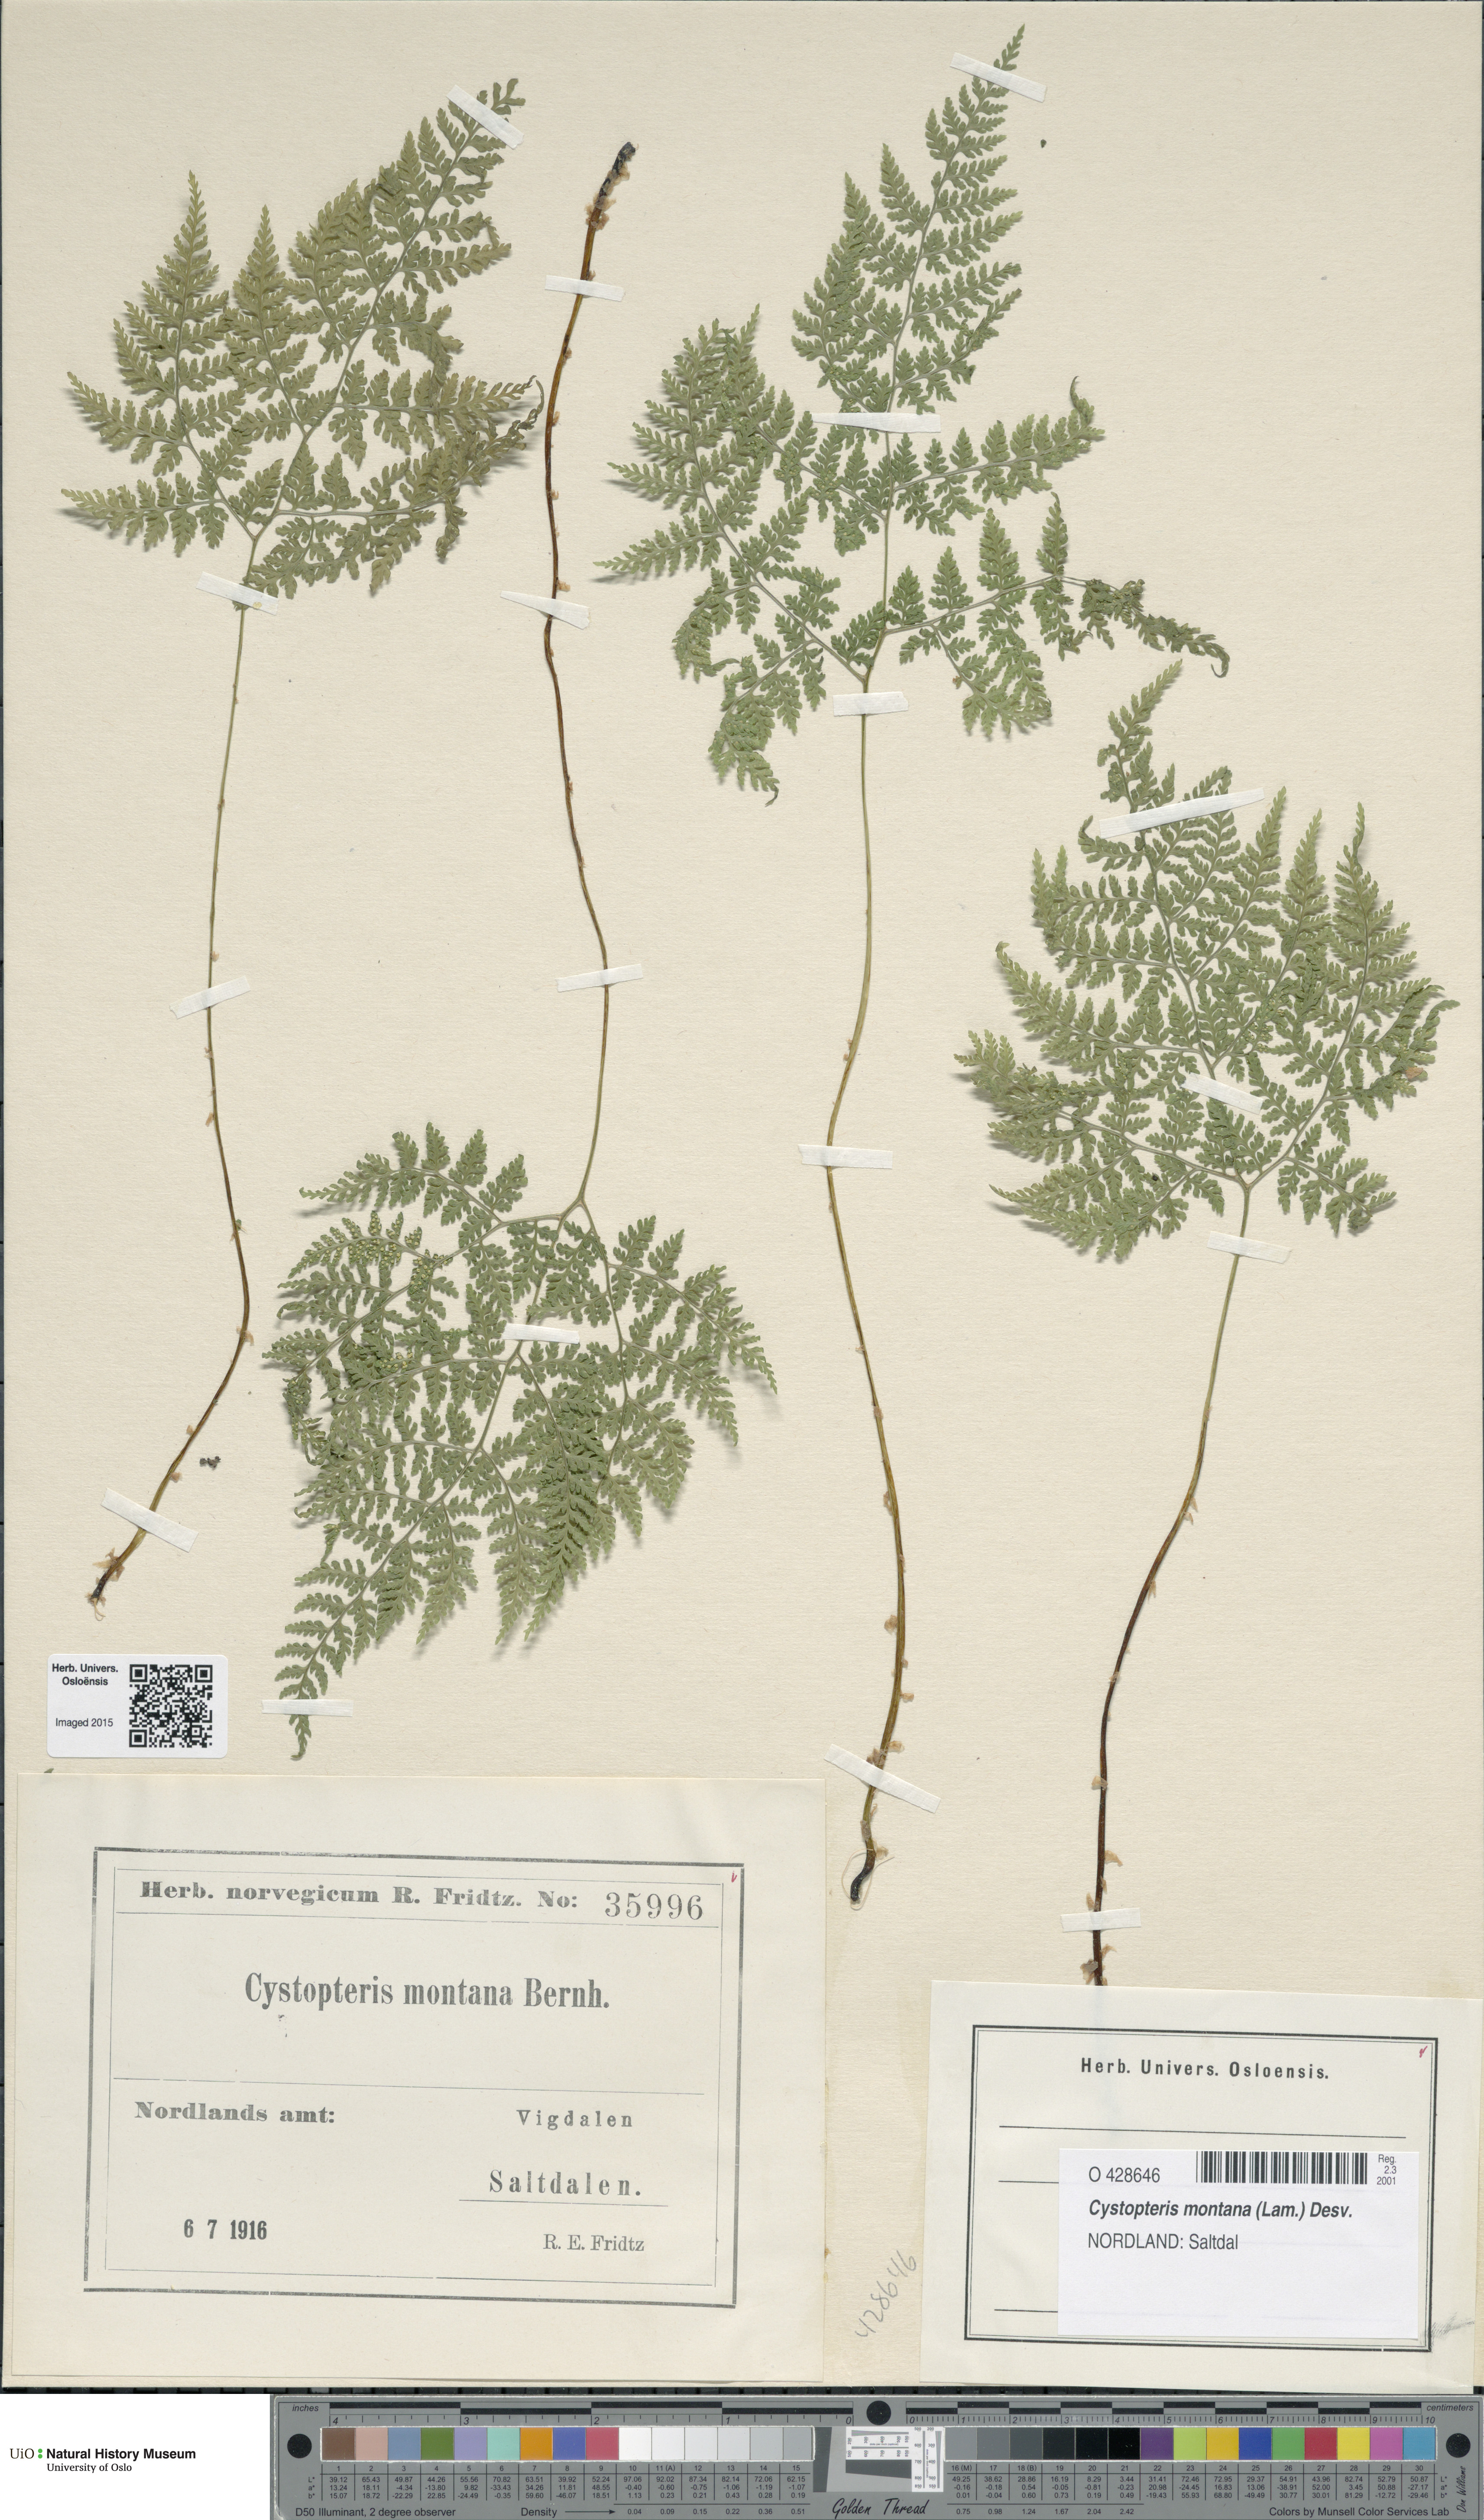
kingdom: Plantae
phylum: Tracheophyta
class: Polypodiopsida
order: Polypodiales
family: Cystopteridaceae
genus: Cystopteris
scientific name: Cystopteris montana
